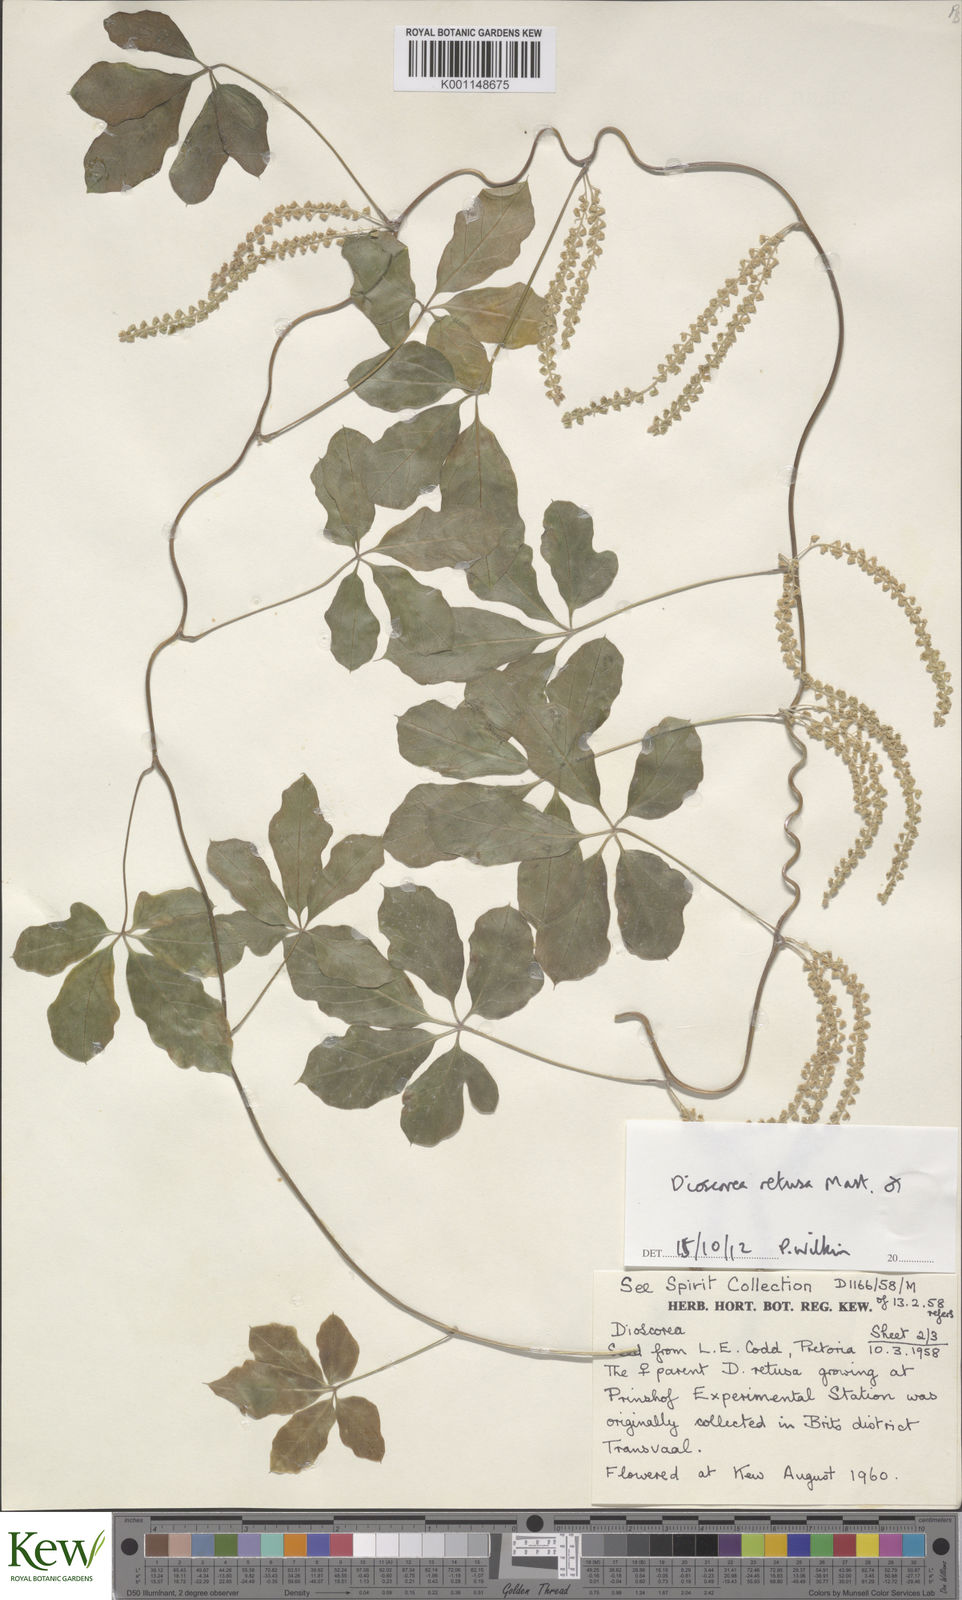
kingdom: Plantae
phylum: Tracheophyta
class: Liliopsida
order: Dioscoreales
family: Dioscoreaceae
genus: Dioscorea
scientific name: Dioscorea retusa
